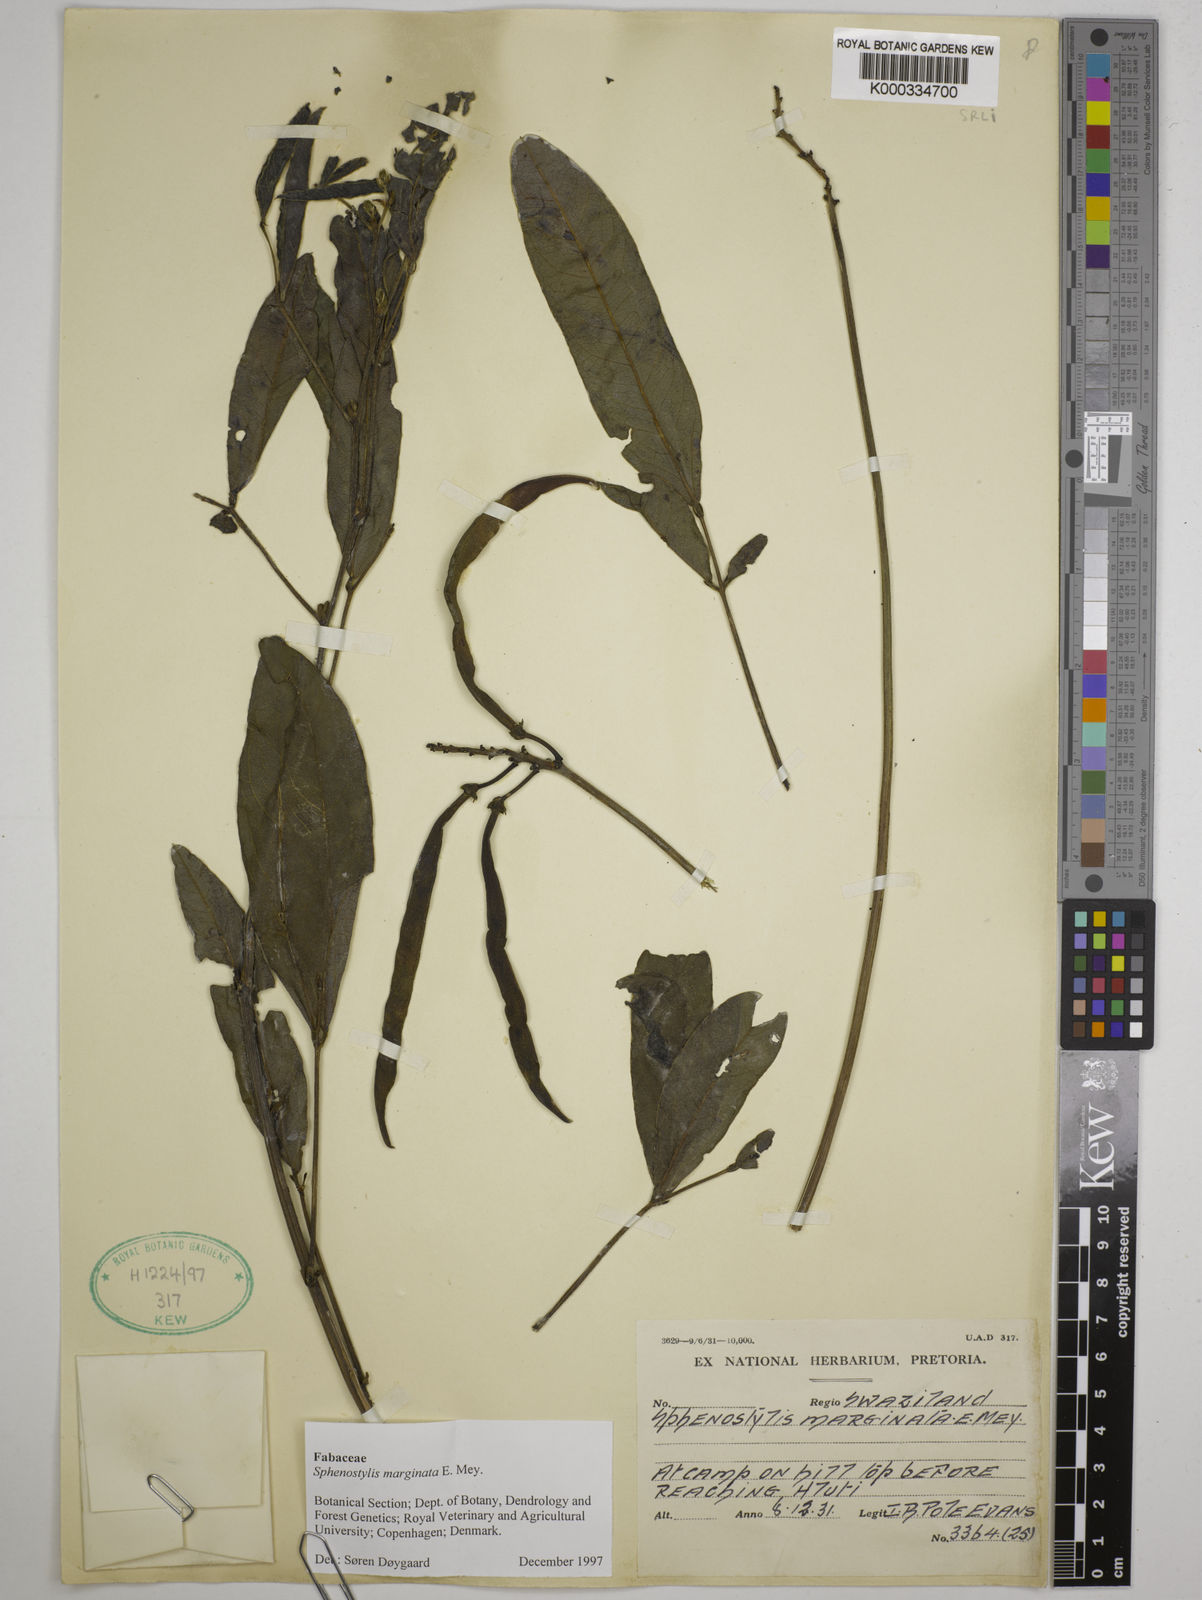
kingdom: Plantae
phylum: Tracheophyta
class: Magnoliopsida
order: Fabales
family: Fabaceae
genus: Sphenostylis
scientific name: Sphenostylis marginata
